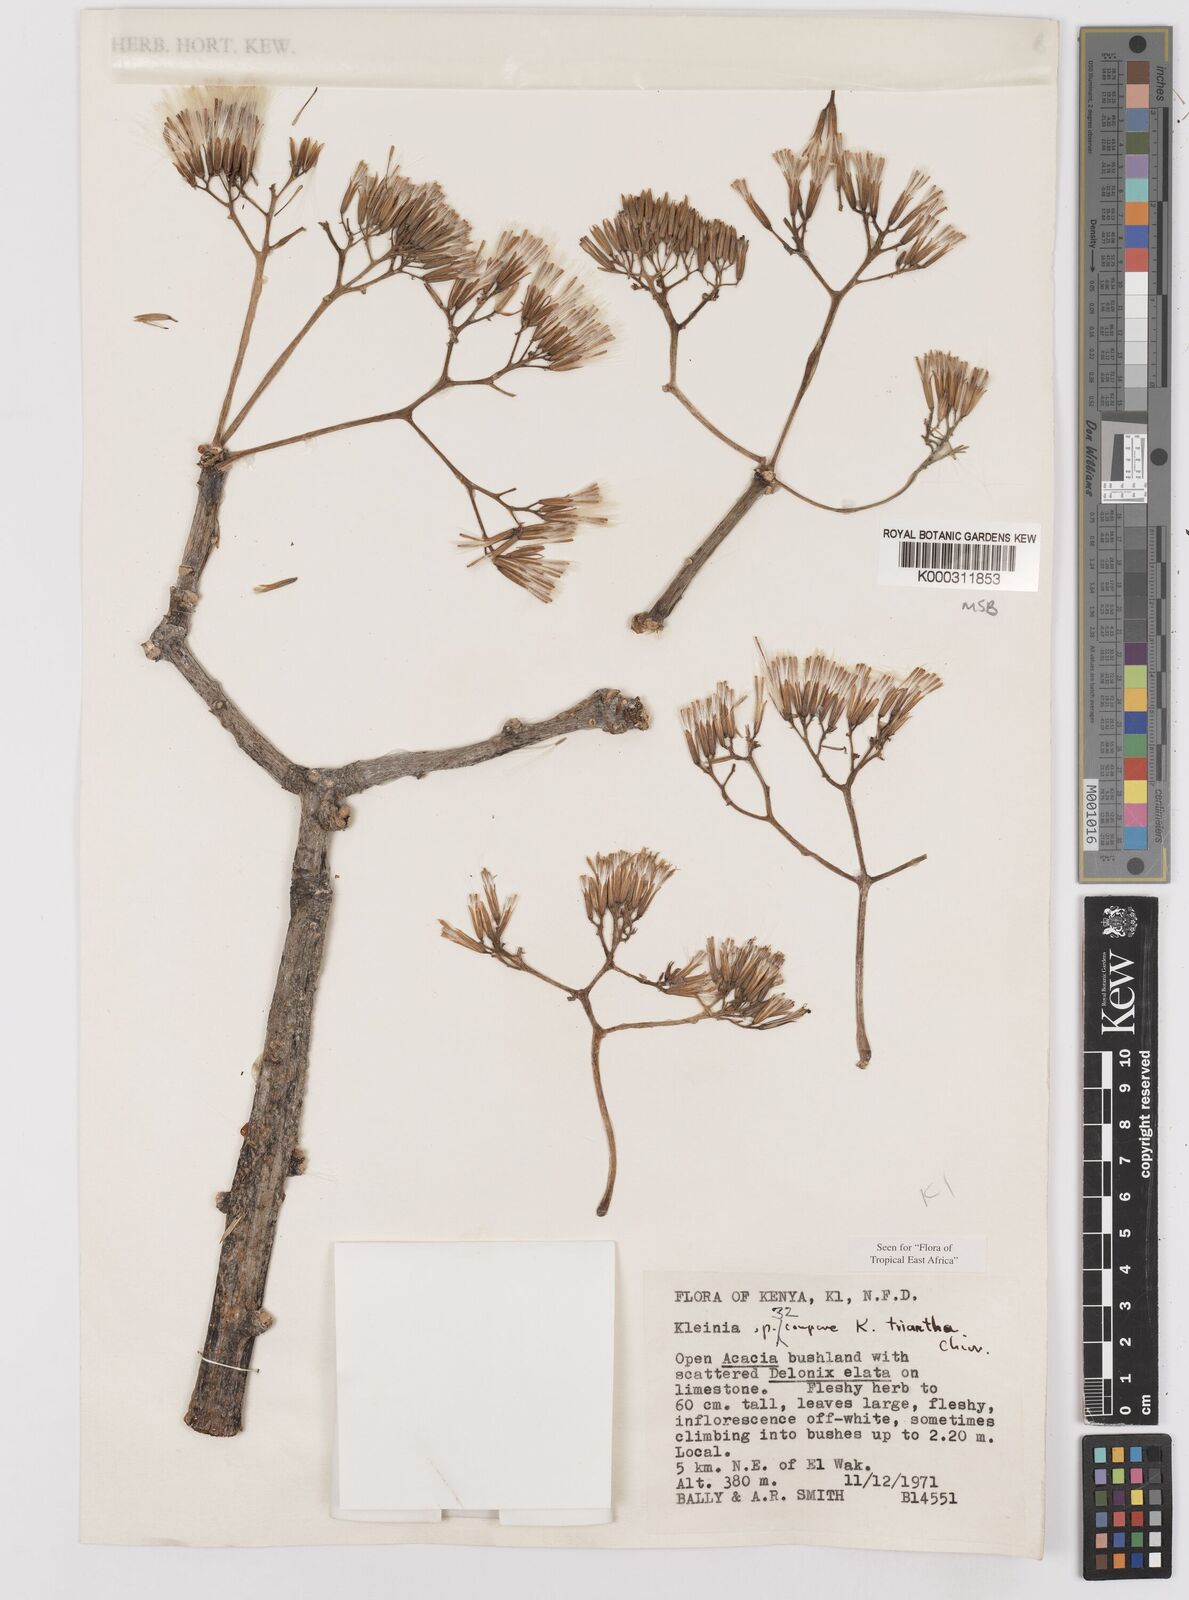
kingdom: Plantae
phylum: Tracheophyta
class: Magnoliopsida
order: Asterales
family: Asteraceae
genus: Kleinia
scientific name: Kleinia triantha
